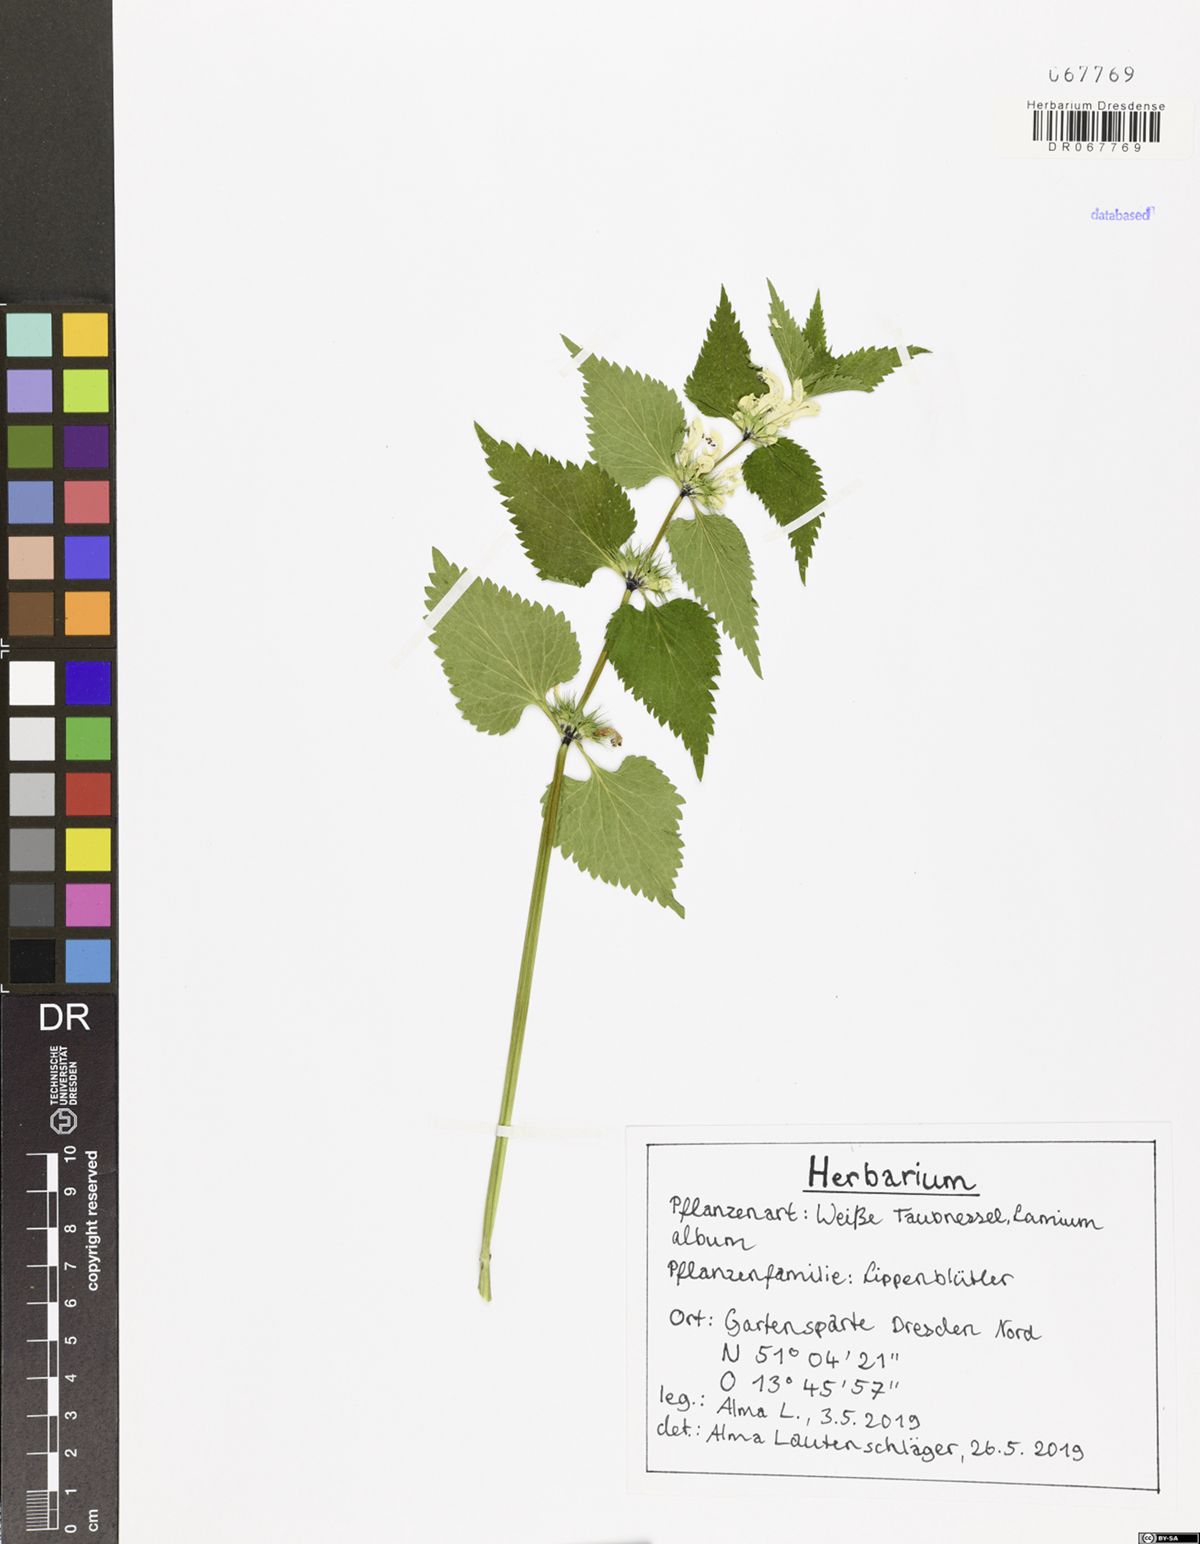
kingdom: Plantae
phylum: Tracheophyta
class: Magnoliopsida
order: Lamiales
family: Lamiaceae
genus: Lamium
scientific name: Lamium album
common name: White dead-nettle
